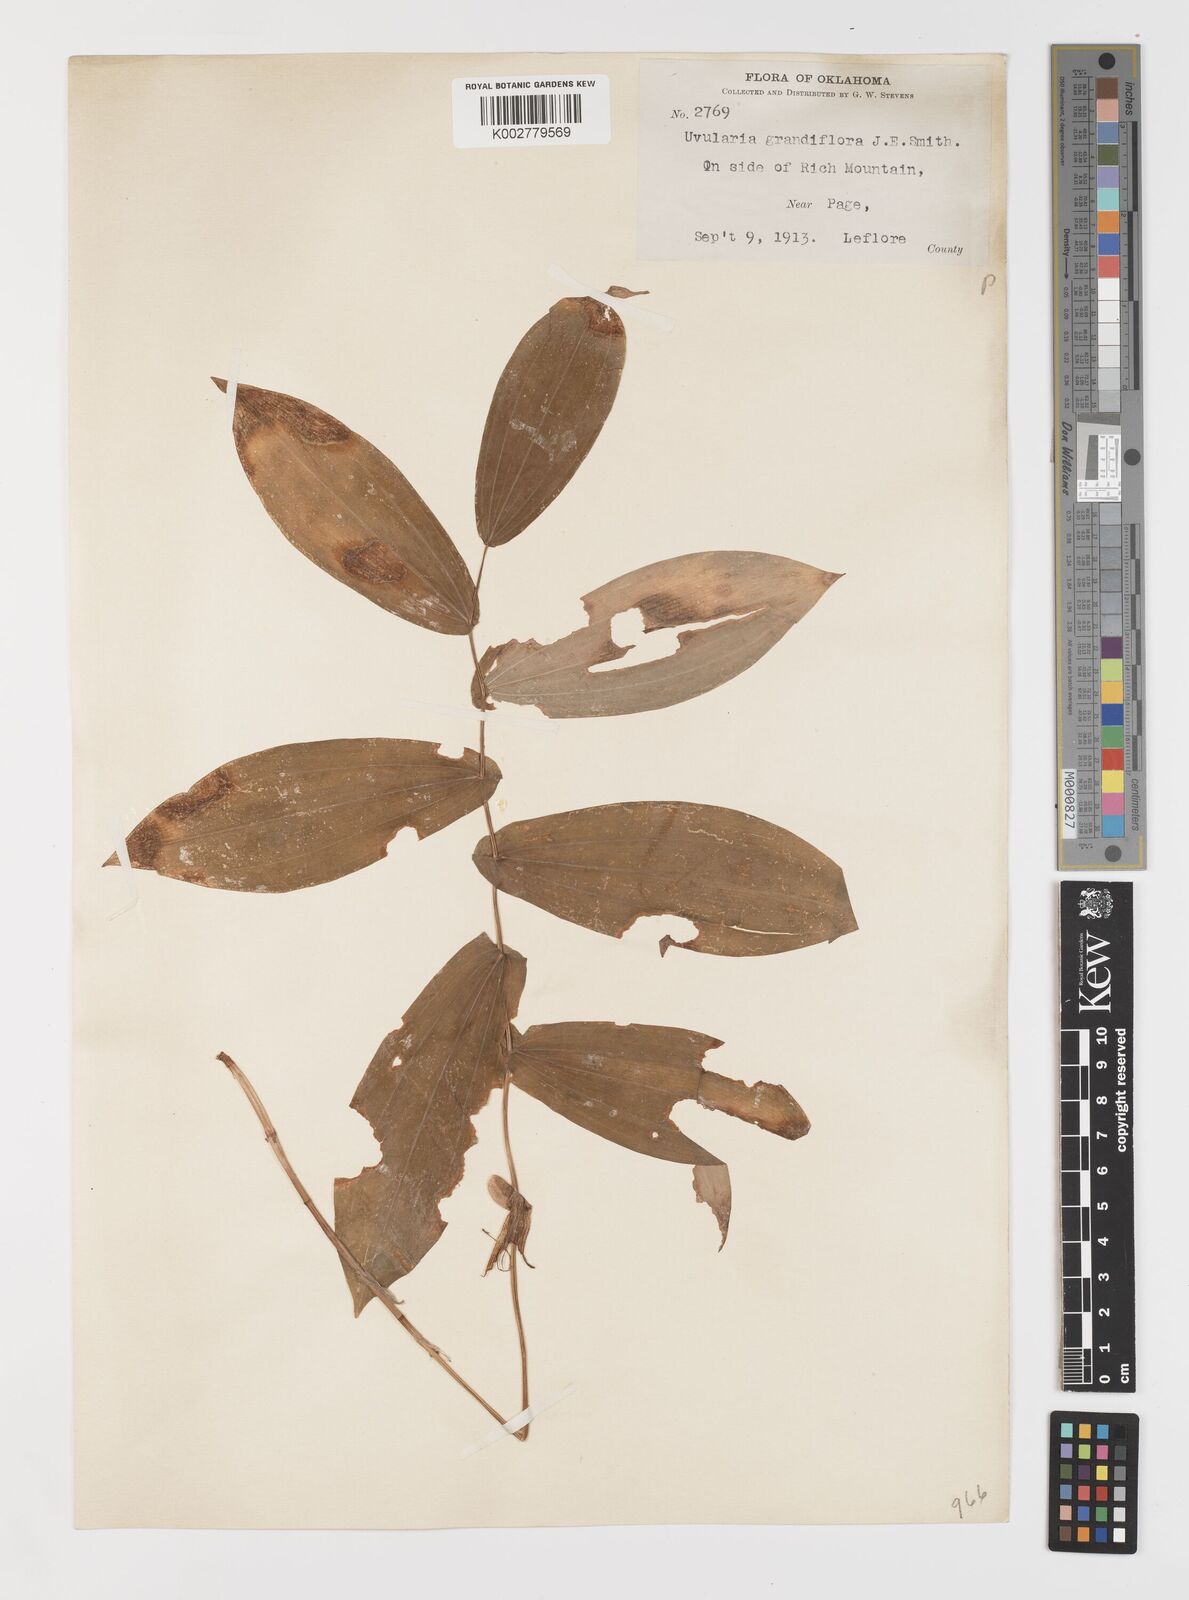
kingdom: Plantae
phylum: Tracheophyta
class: Liliopsida
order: Liliales
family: Colchicaceae
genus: Uvularia
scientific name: Uvularia grandiflora
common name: Bellwort
